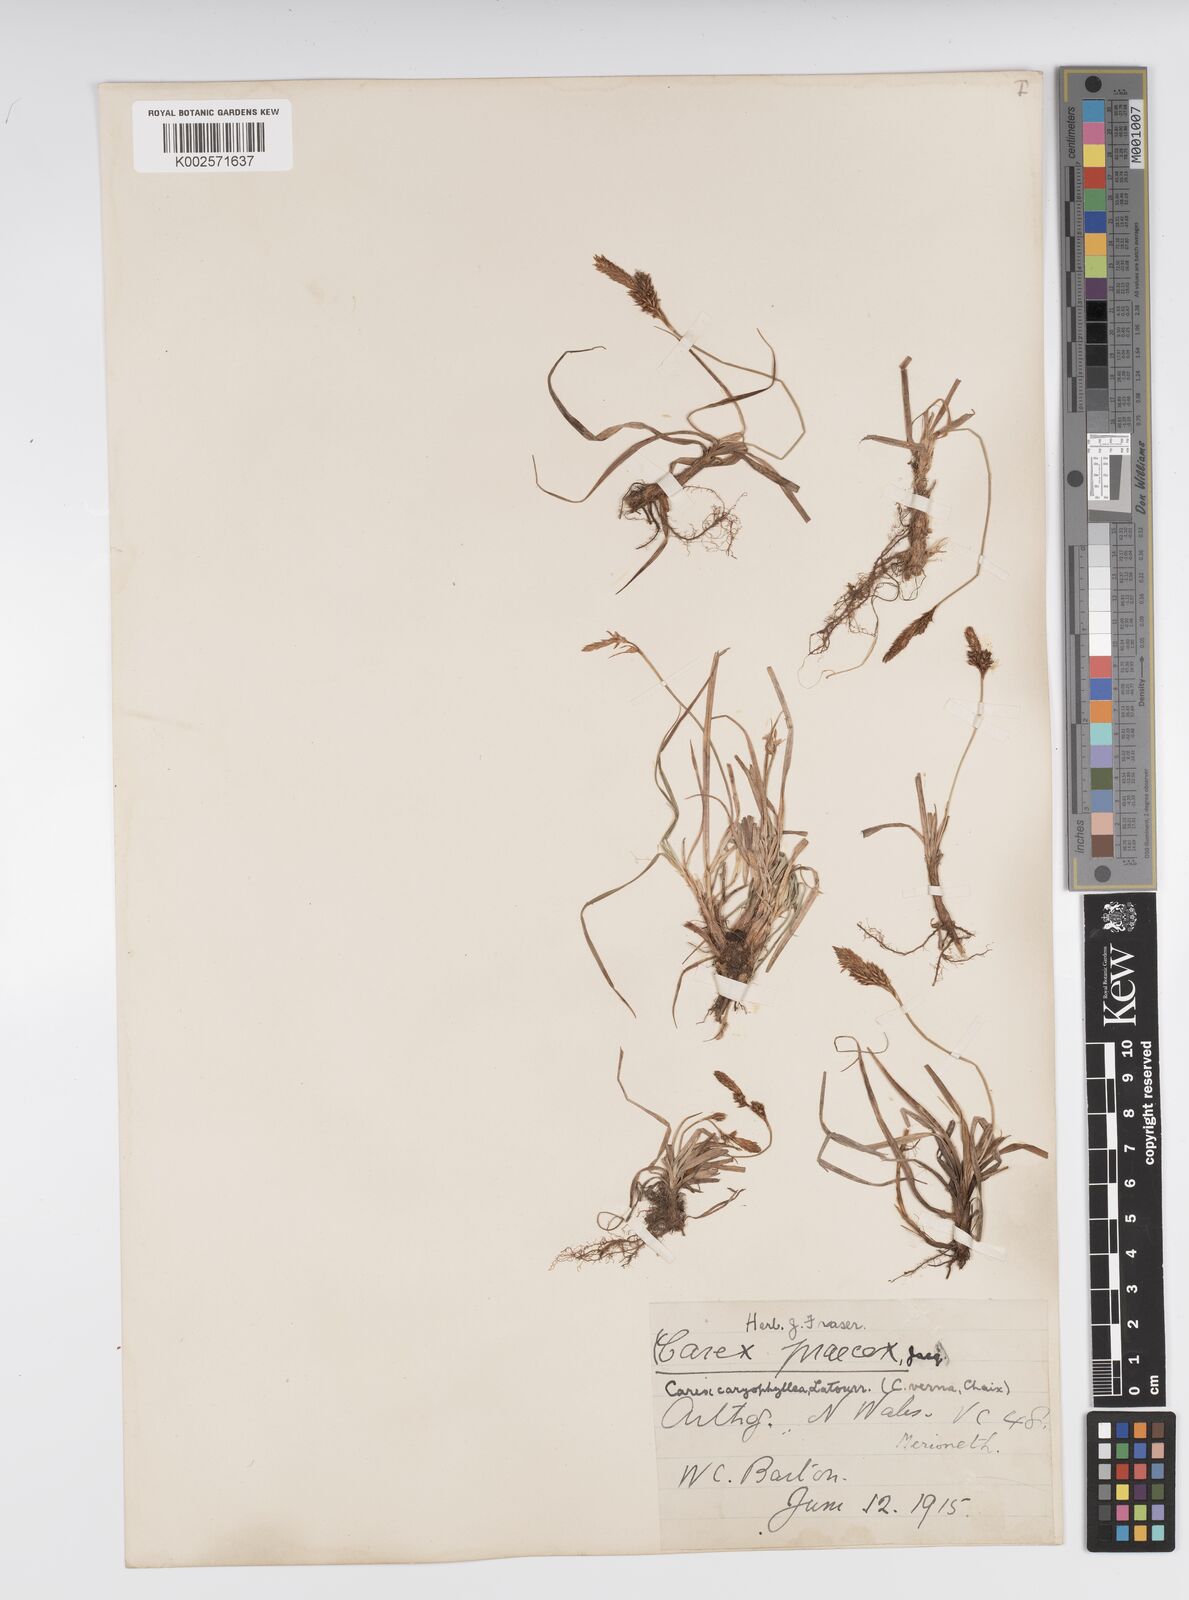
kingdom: Plantae
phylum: Tracheophyta
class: Liliopsida
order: Poales
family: Cyperaceae
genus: Carex
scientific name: Carex caryophyllea
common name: Spring sedge
